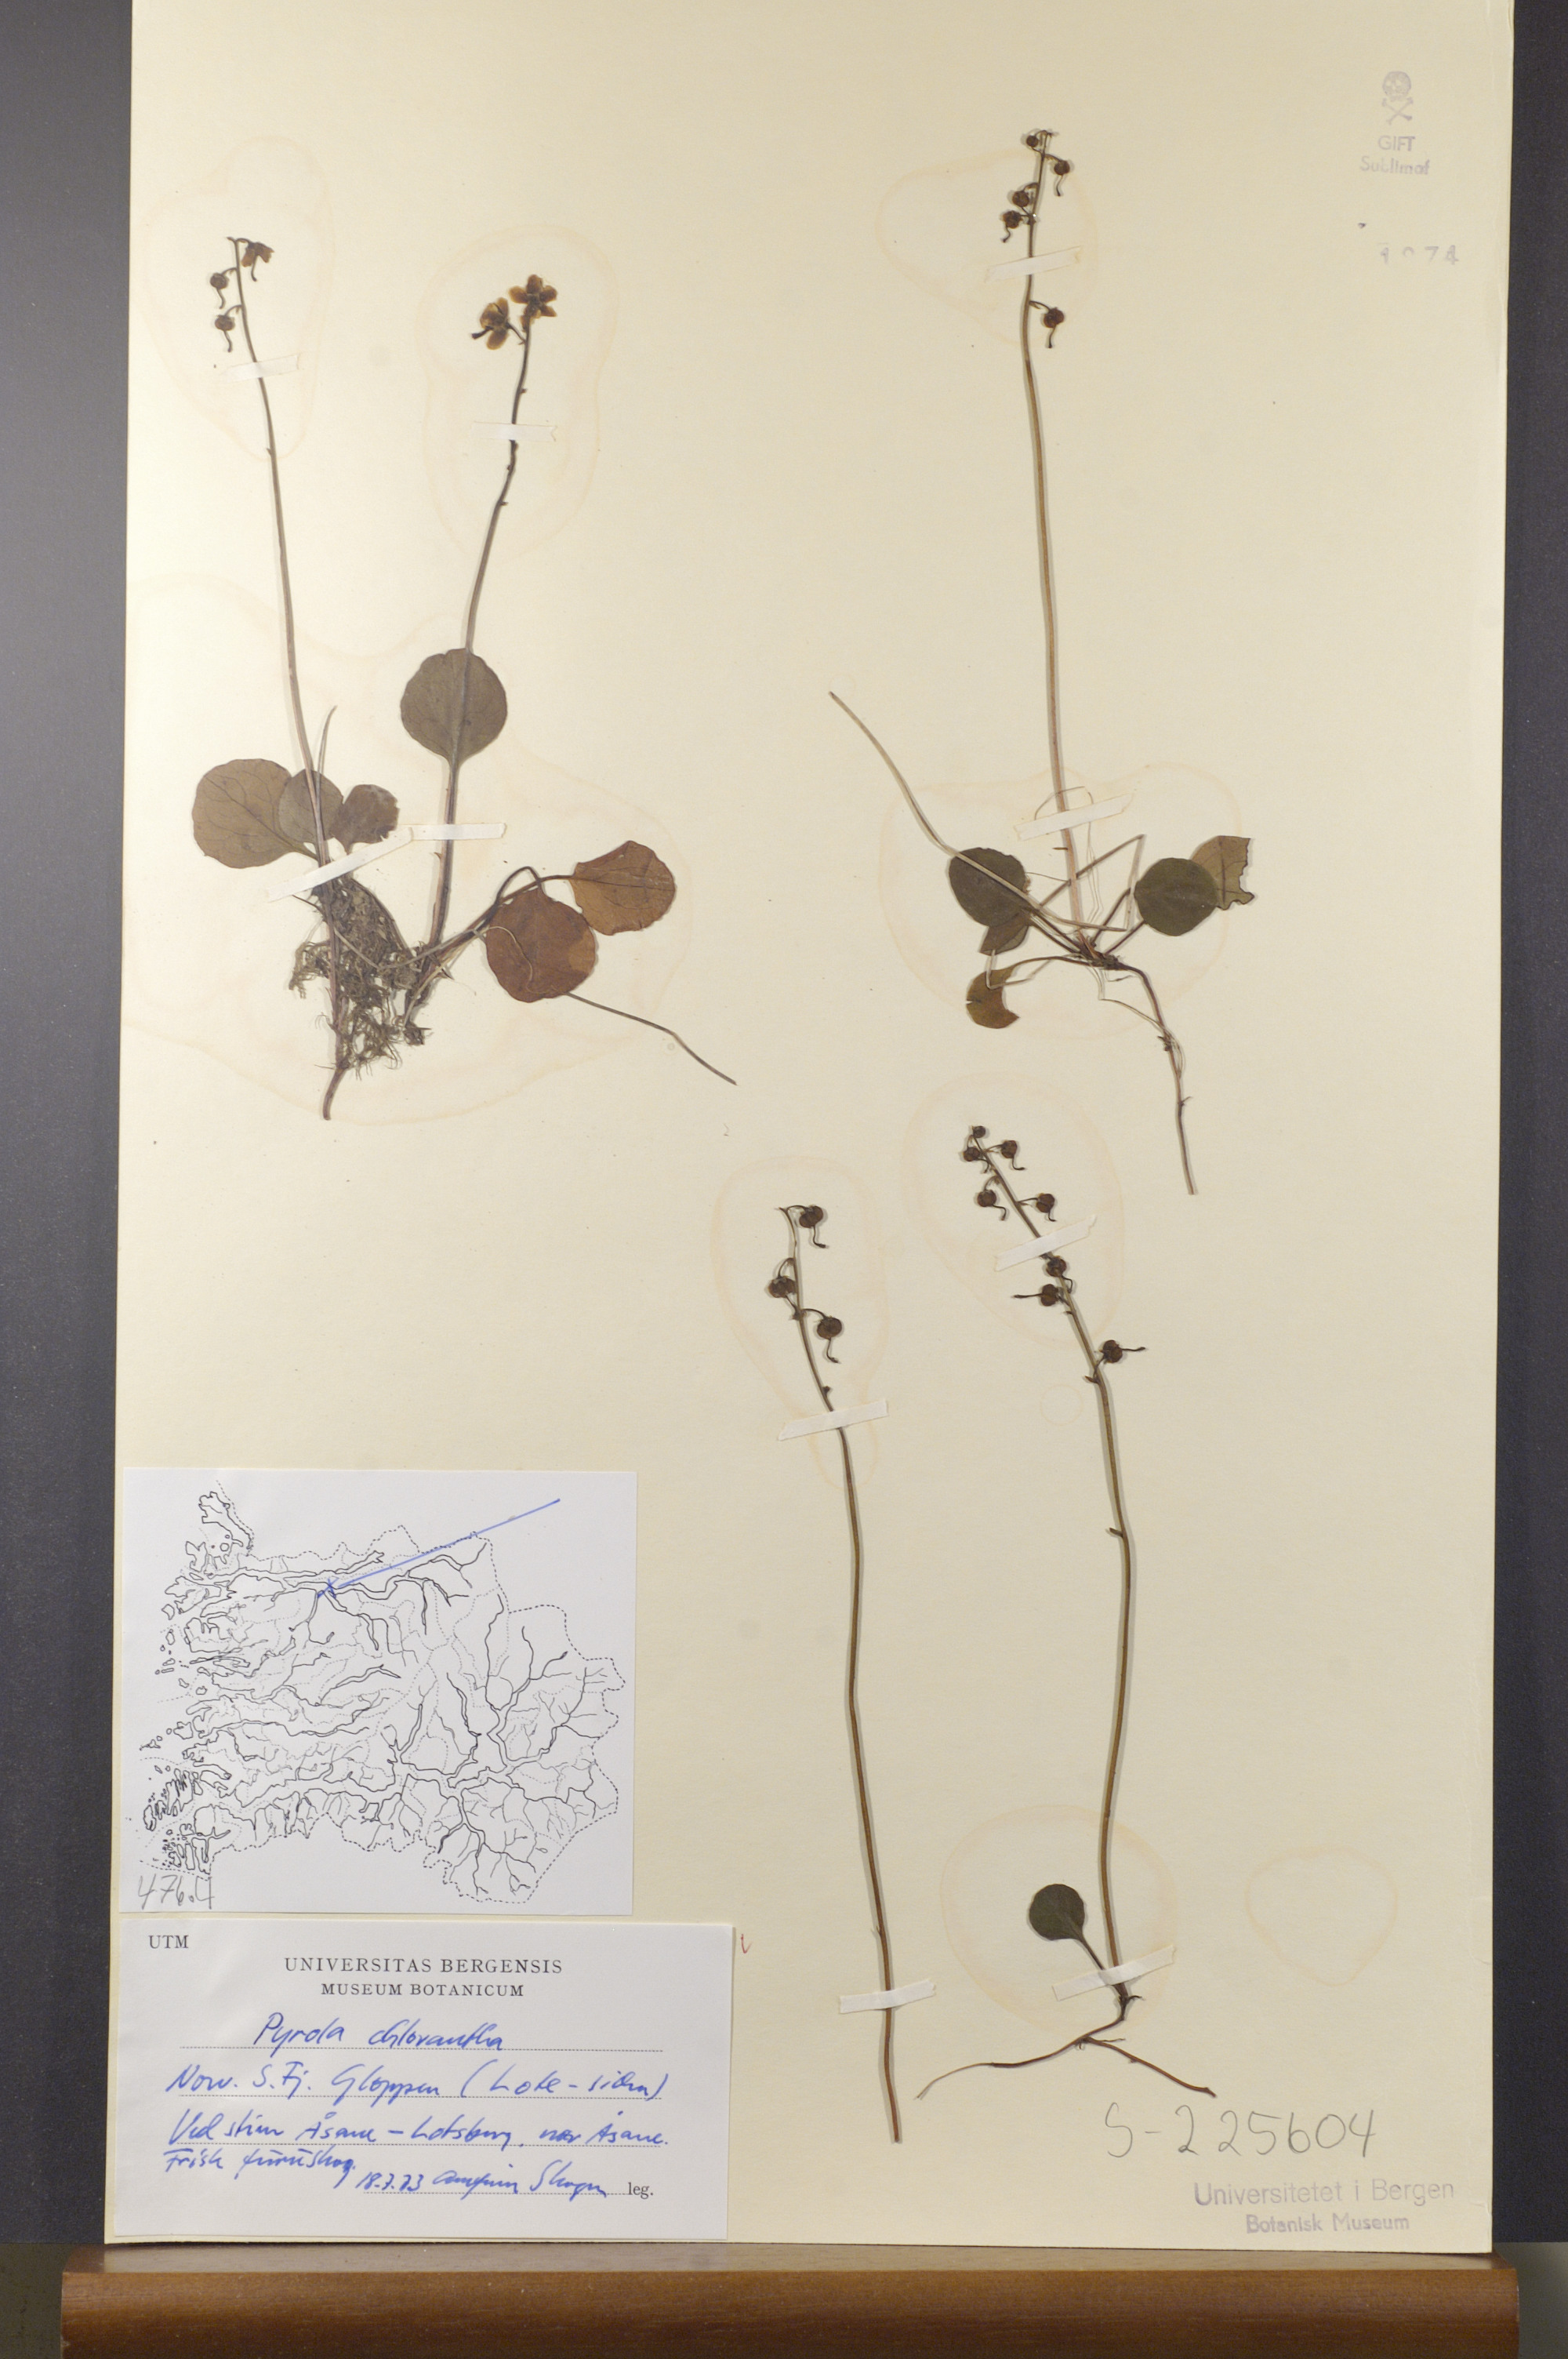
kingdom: Plantae
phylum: Tracheophyta
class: Magnoliopsida
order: Ericales
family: Ericaceae
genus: Pyrola
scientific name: Pyrola chlorantha
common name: Green wintergreen
